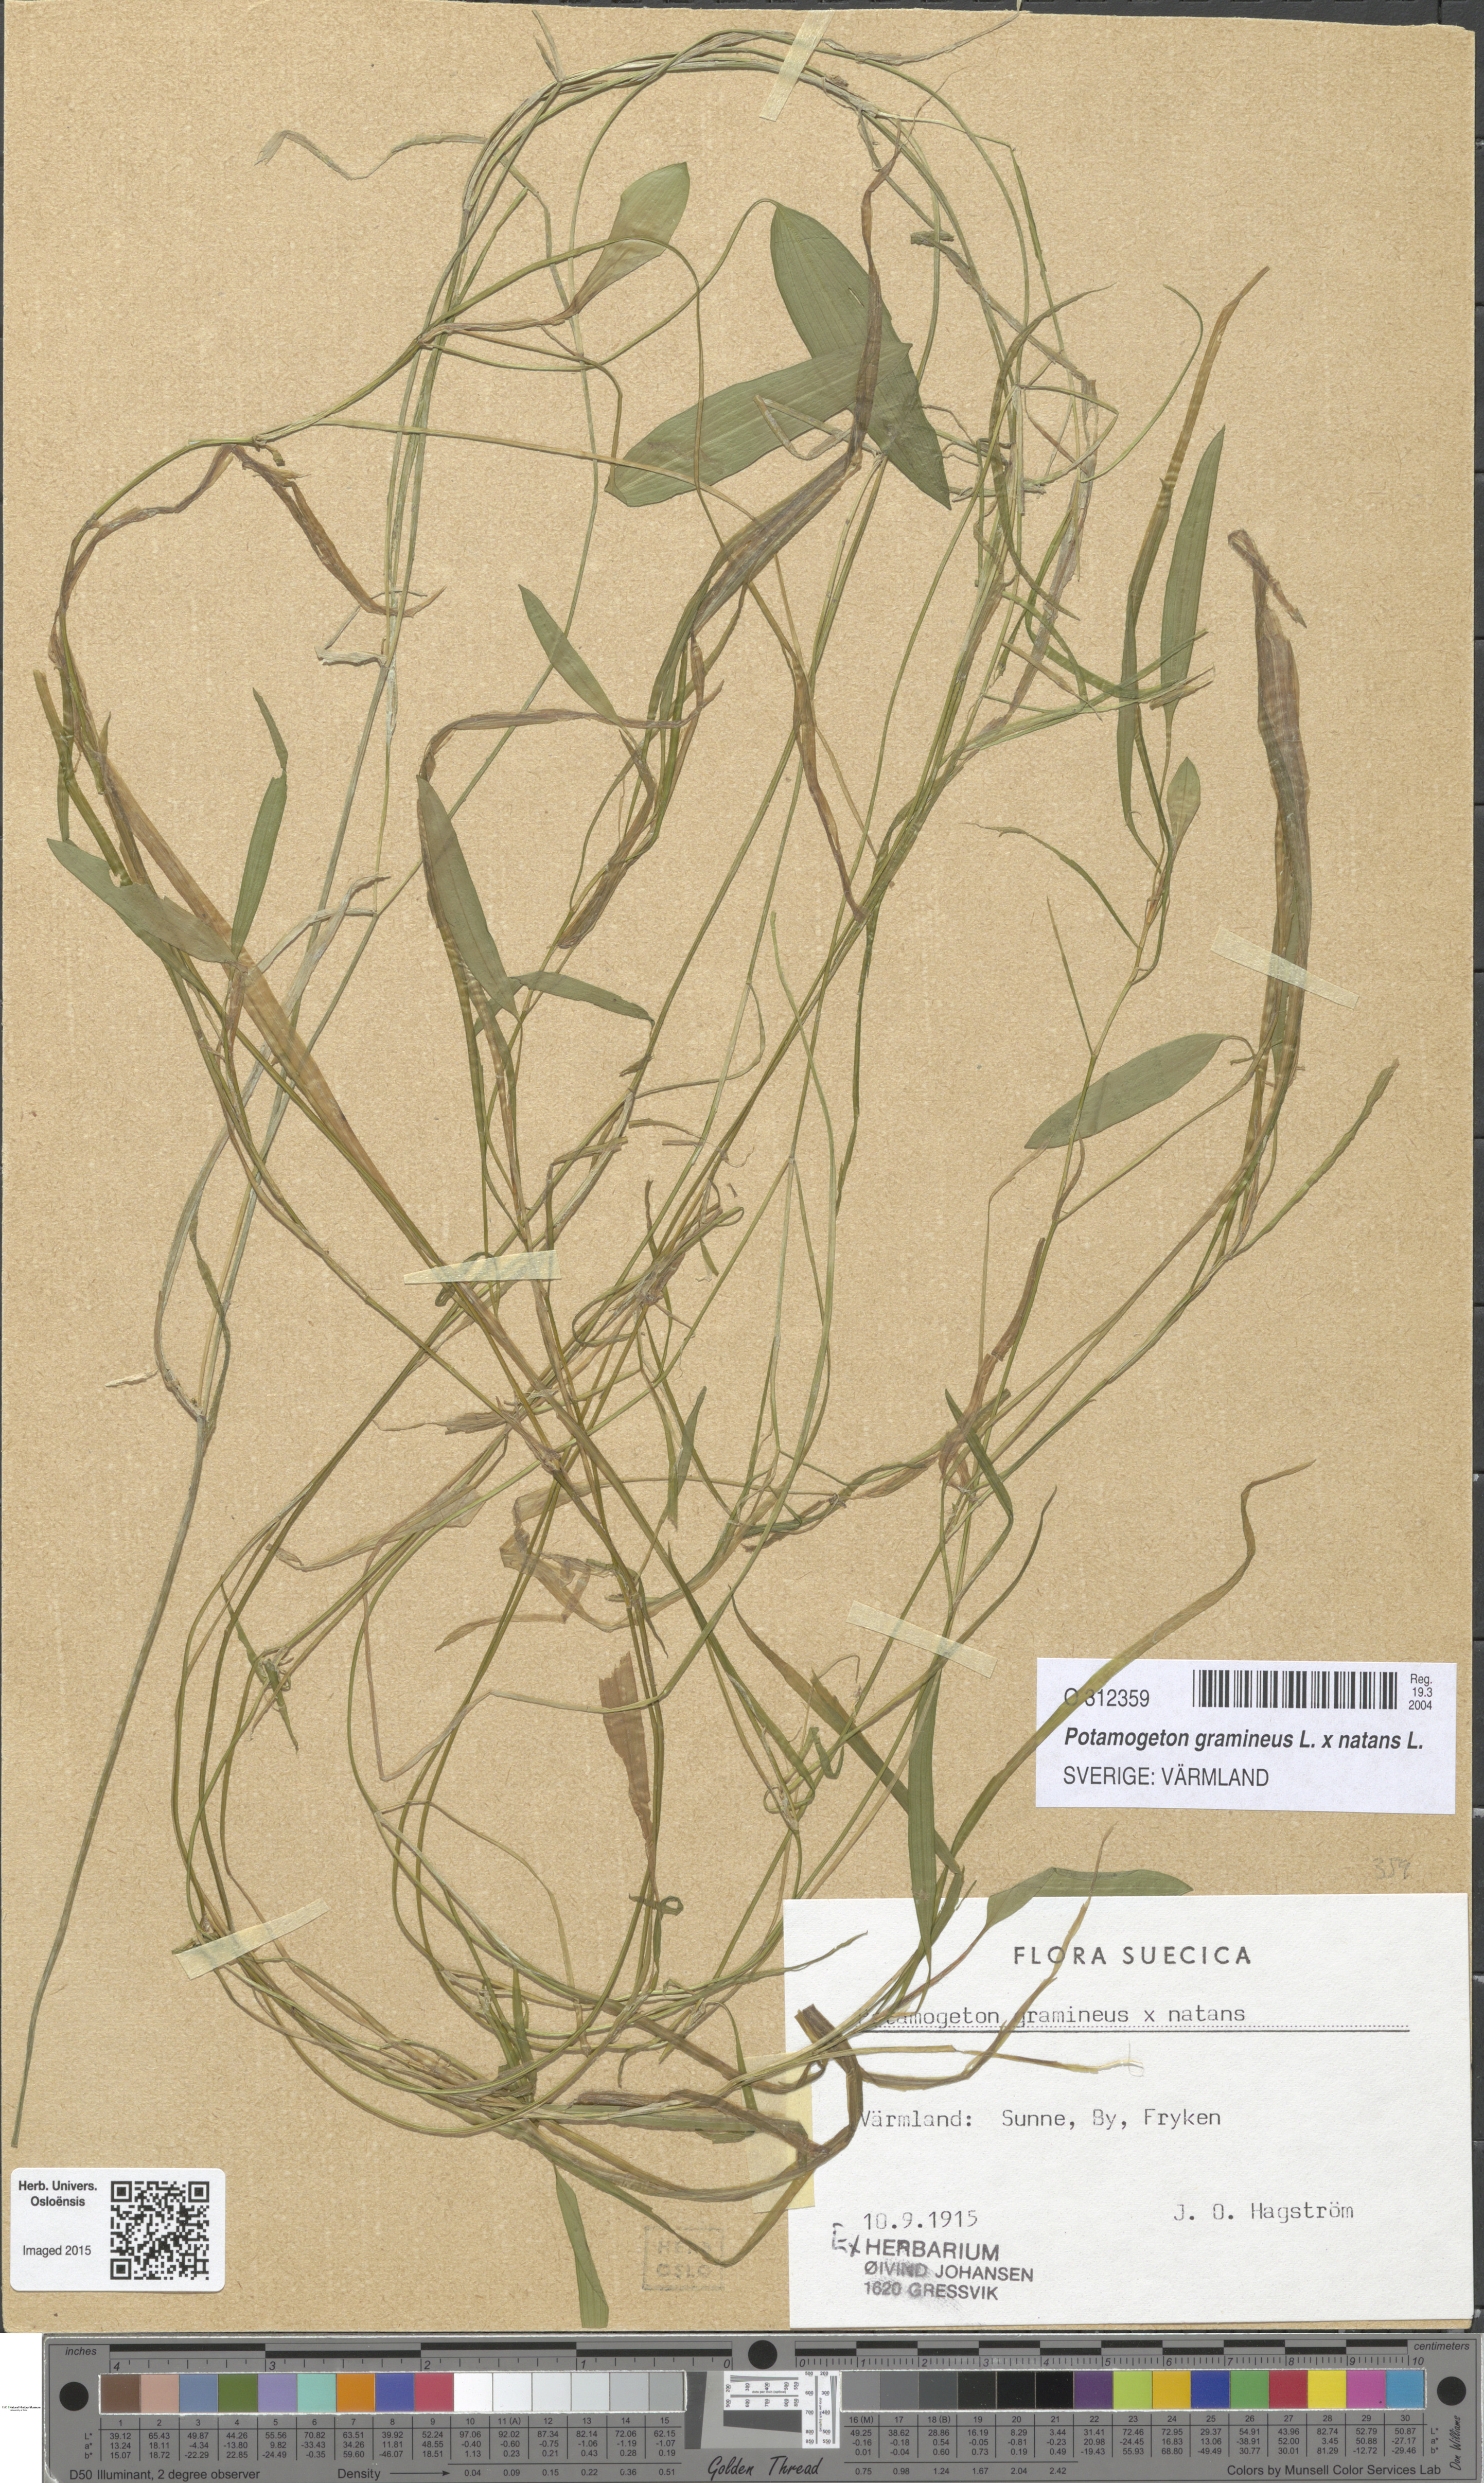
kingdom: Plantae
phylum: Tracheophyta
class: Liliopsida
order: Alismatales
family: Potamogetonaceae
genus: Potamogeton
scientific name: Potamogeton
